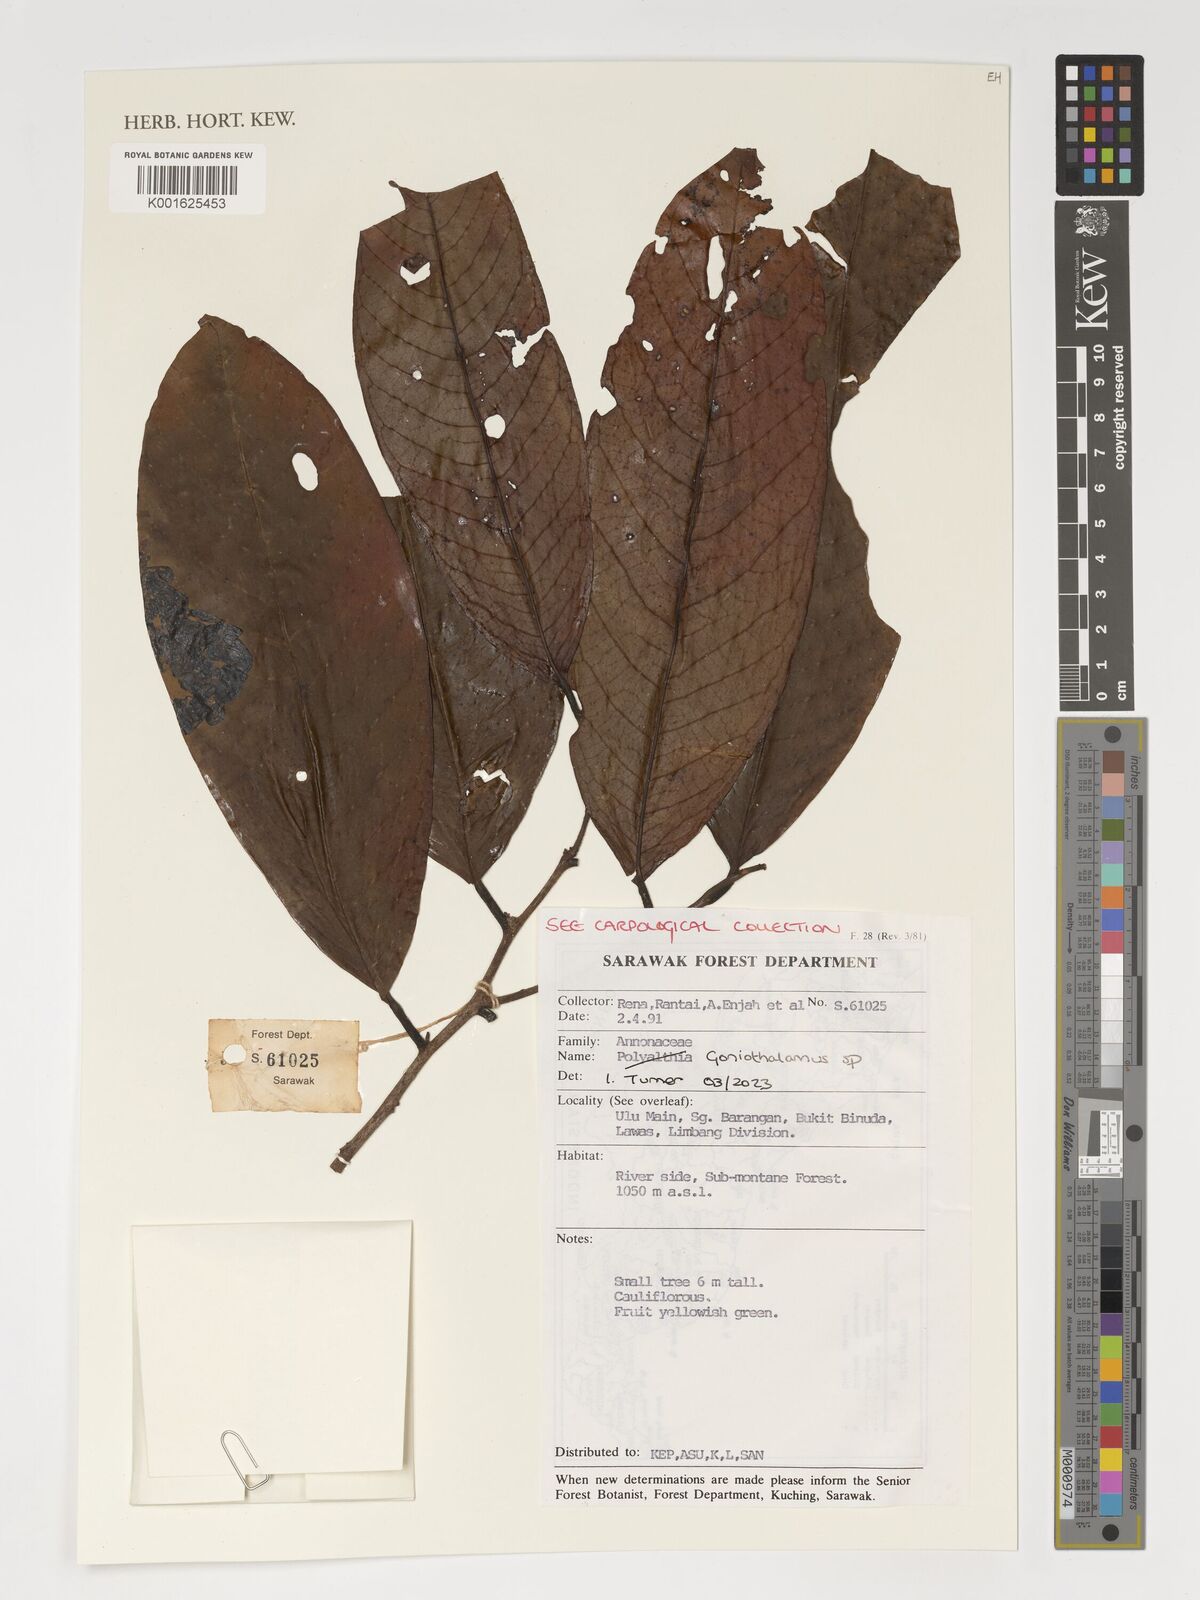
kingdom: Plantae
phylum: Tracheophyta
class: Magnoliopsida
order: Magnoliales
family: Annonaceae
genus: Goniothalamus
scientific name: Goniothalamus
